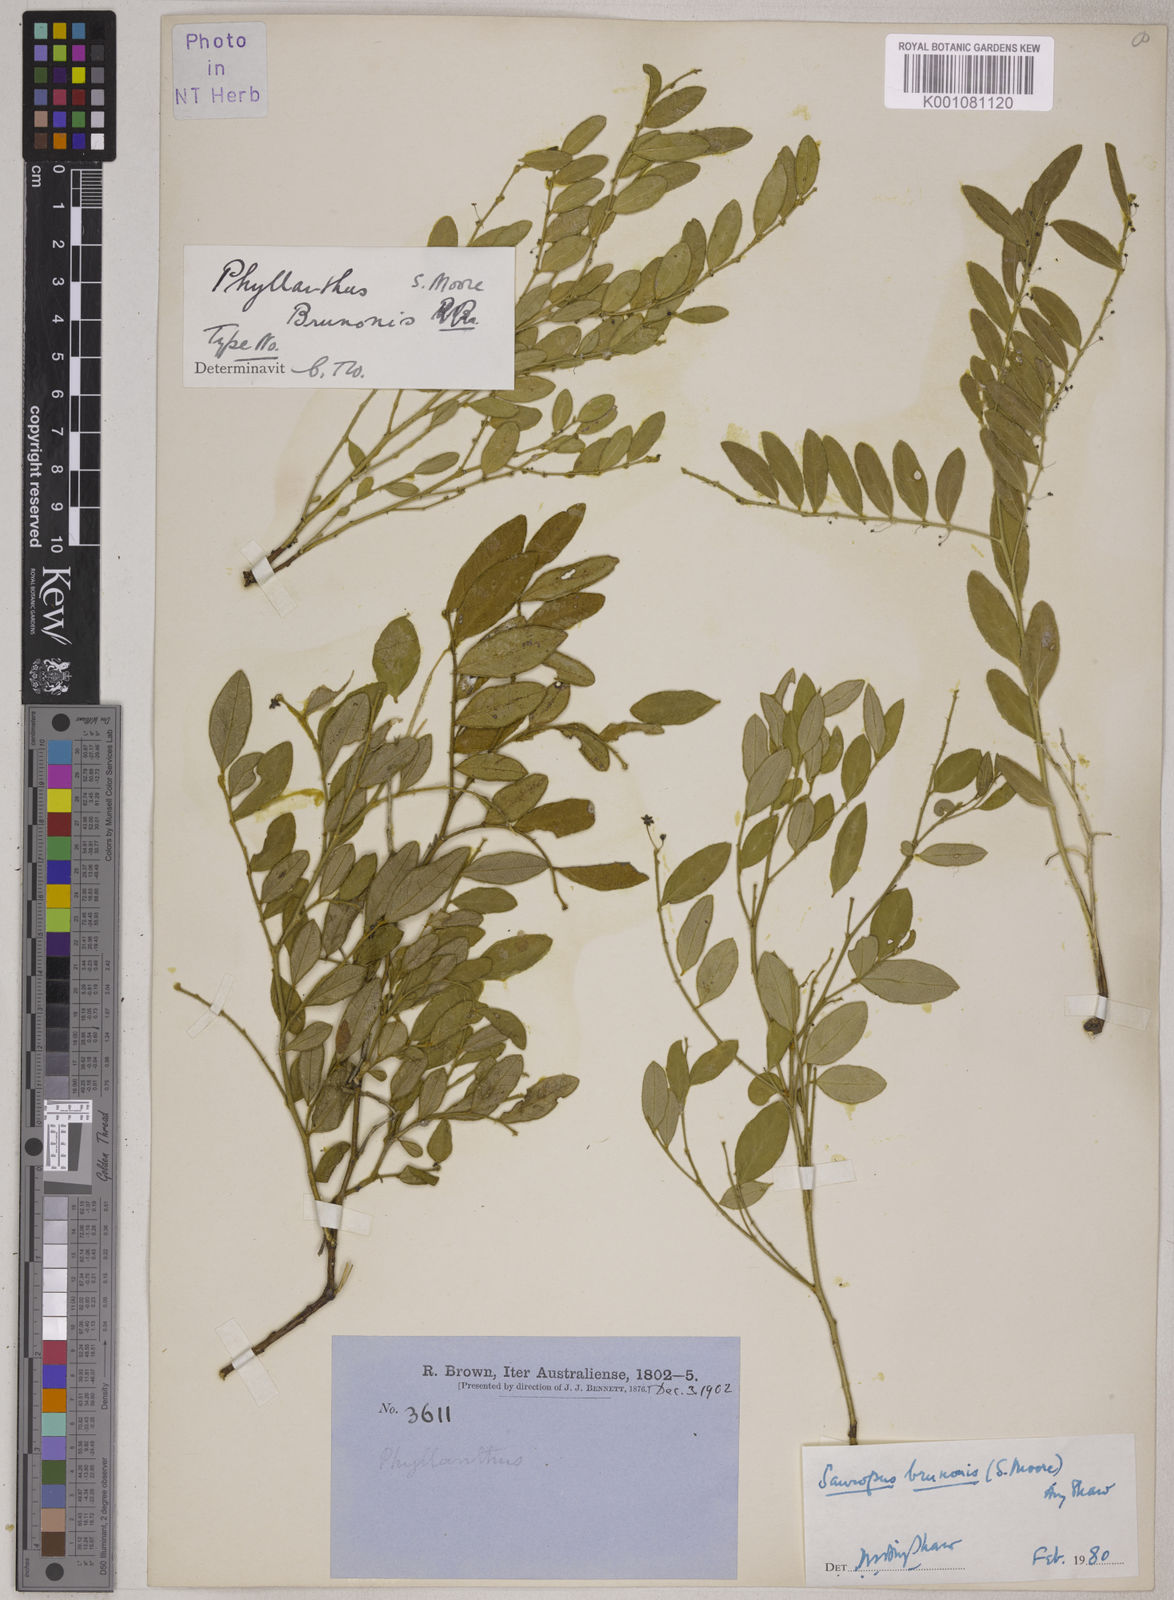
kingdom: Plantae
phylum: Tracheophyta
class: Magnoliopsida
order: Malpighiales
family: Phyllanthaceae
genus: Breynia
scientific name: Breynia Sauropus brunonis
